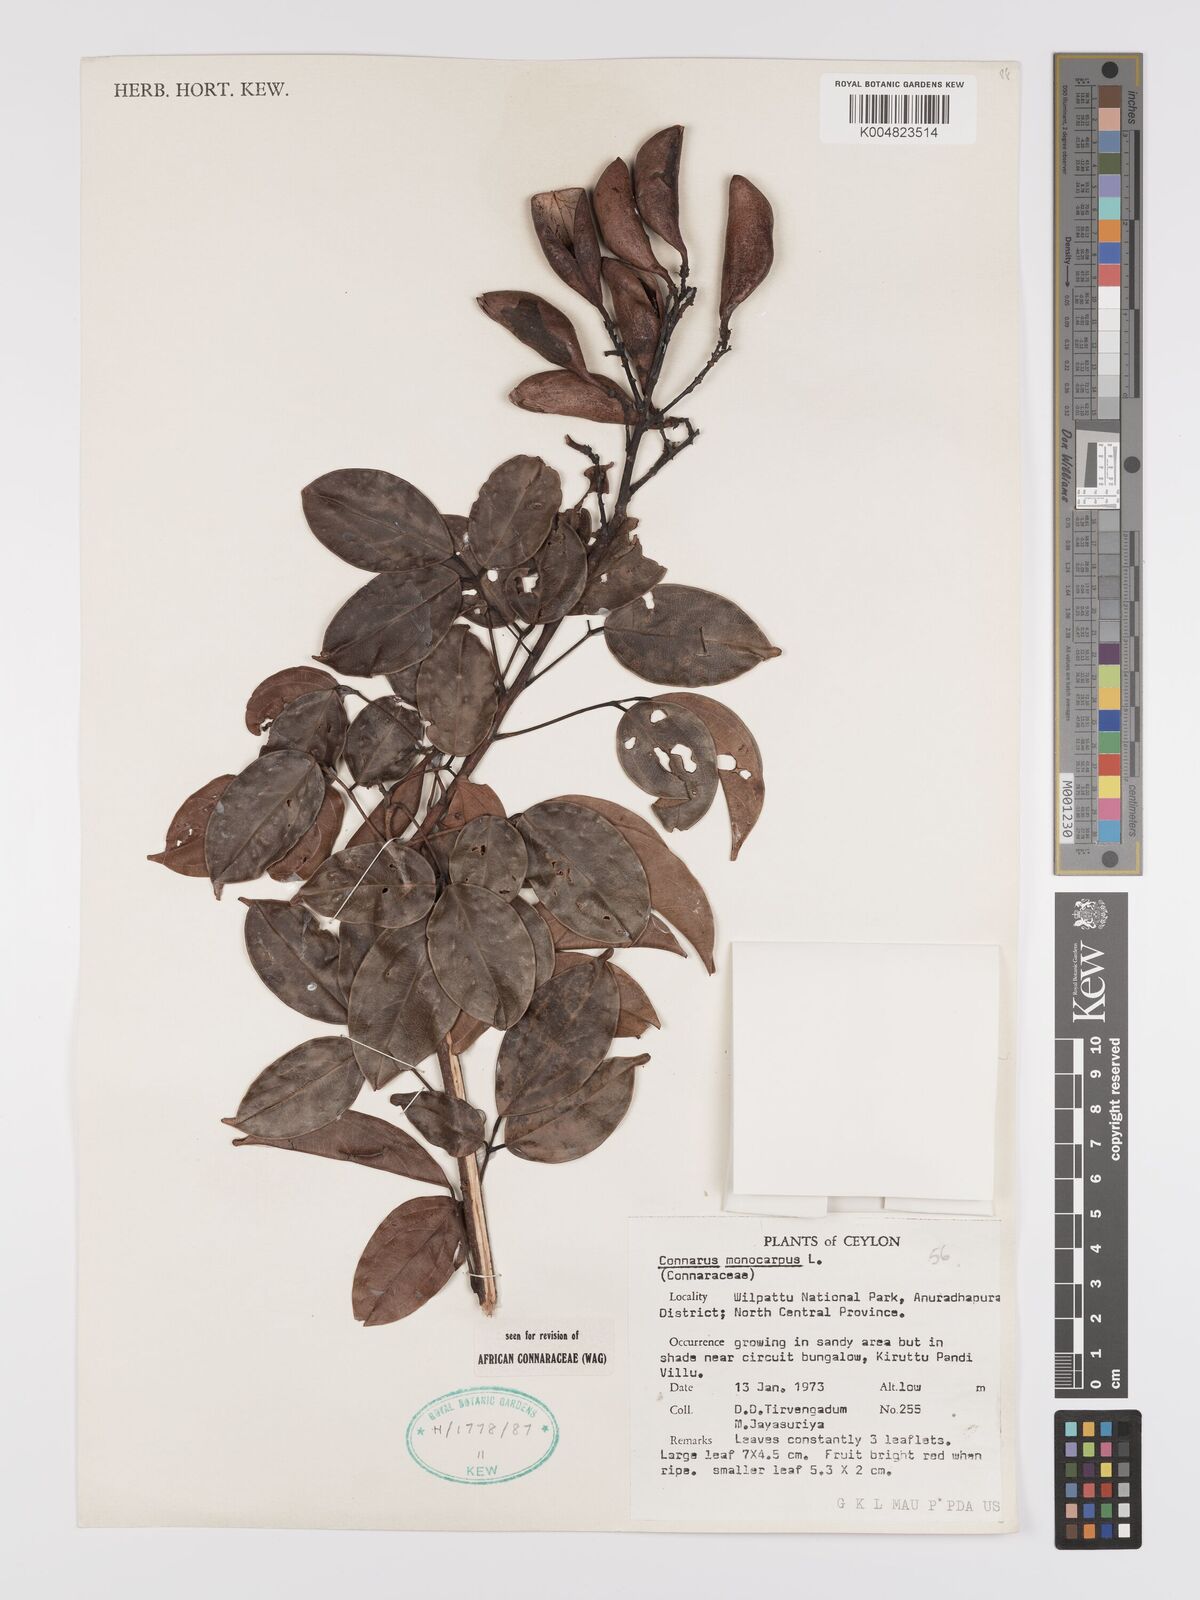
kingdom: Plantae
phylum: Tracheophyta
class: Magnoliopsida
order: Oxalidales
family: Connaraceae
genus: Connarus
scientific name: Connarus semidecandrus
